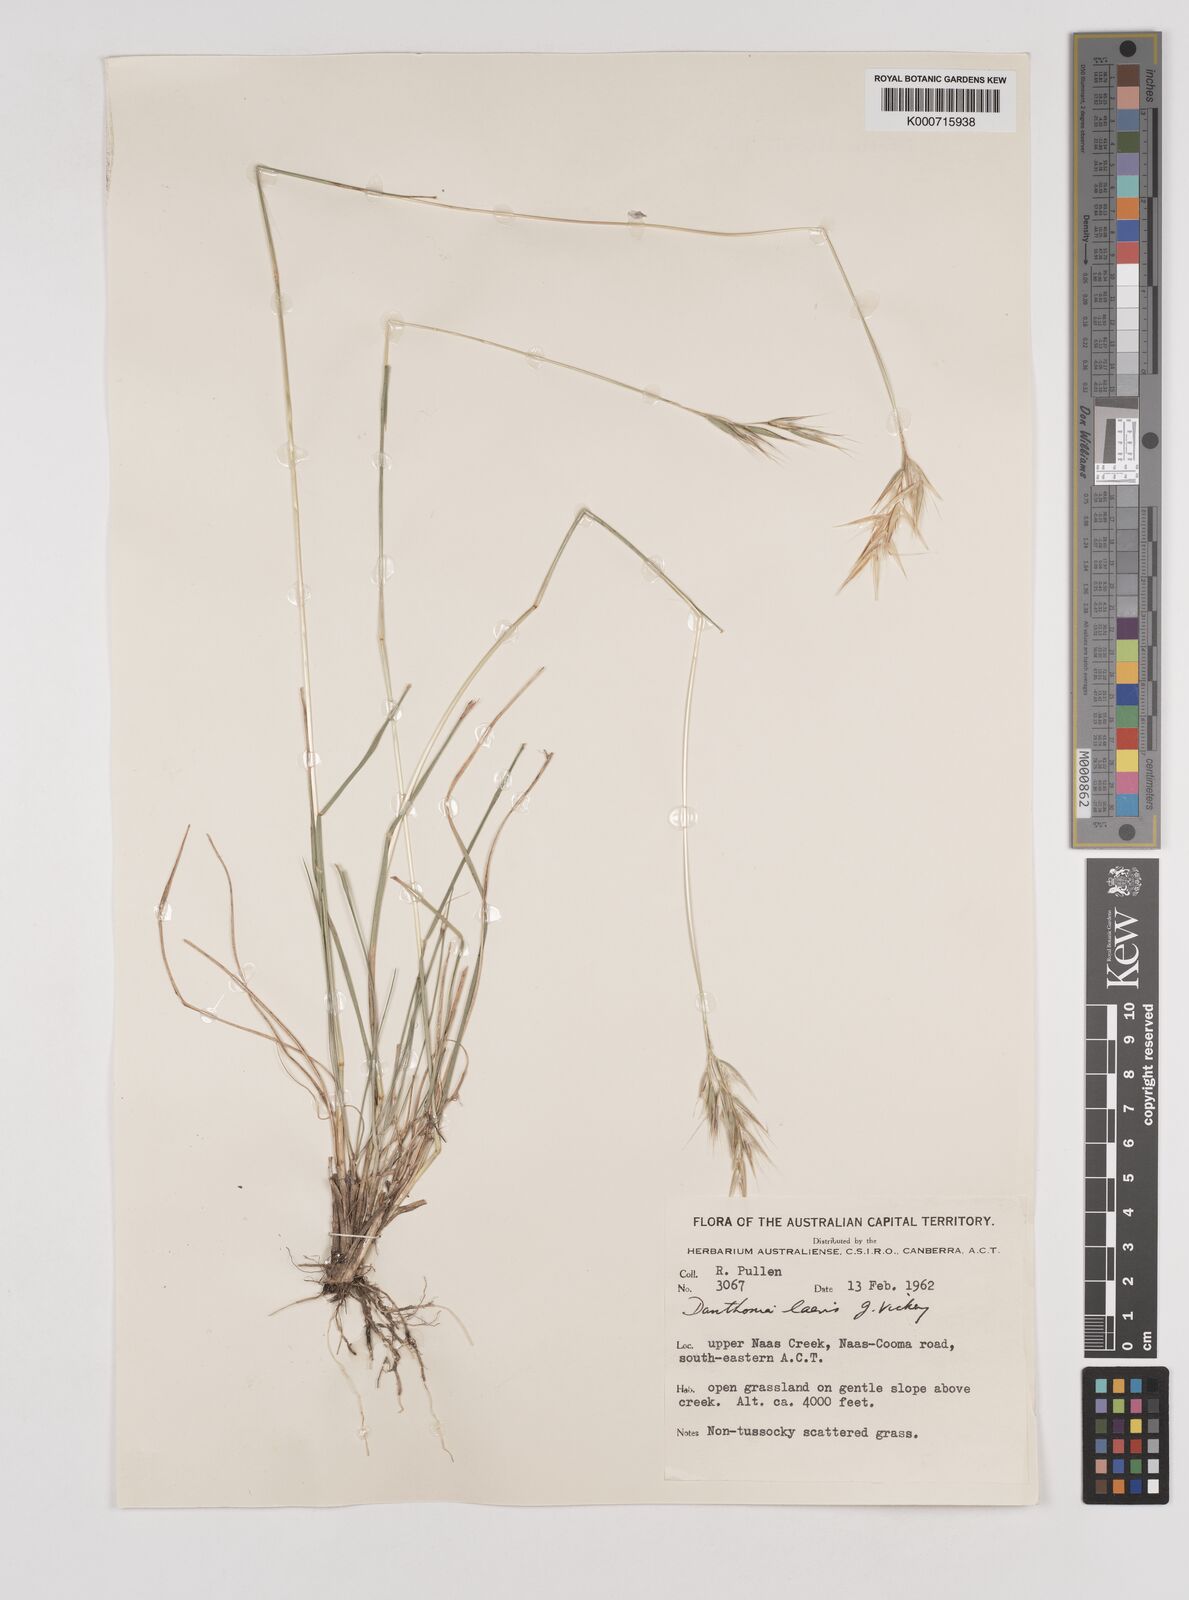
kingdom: Plantae
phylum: Tracheophyta
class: Liliopsida
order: Poales
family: Poaceae
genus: Rytidosperma
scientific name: Rytidosperma laeve
